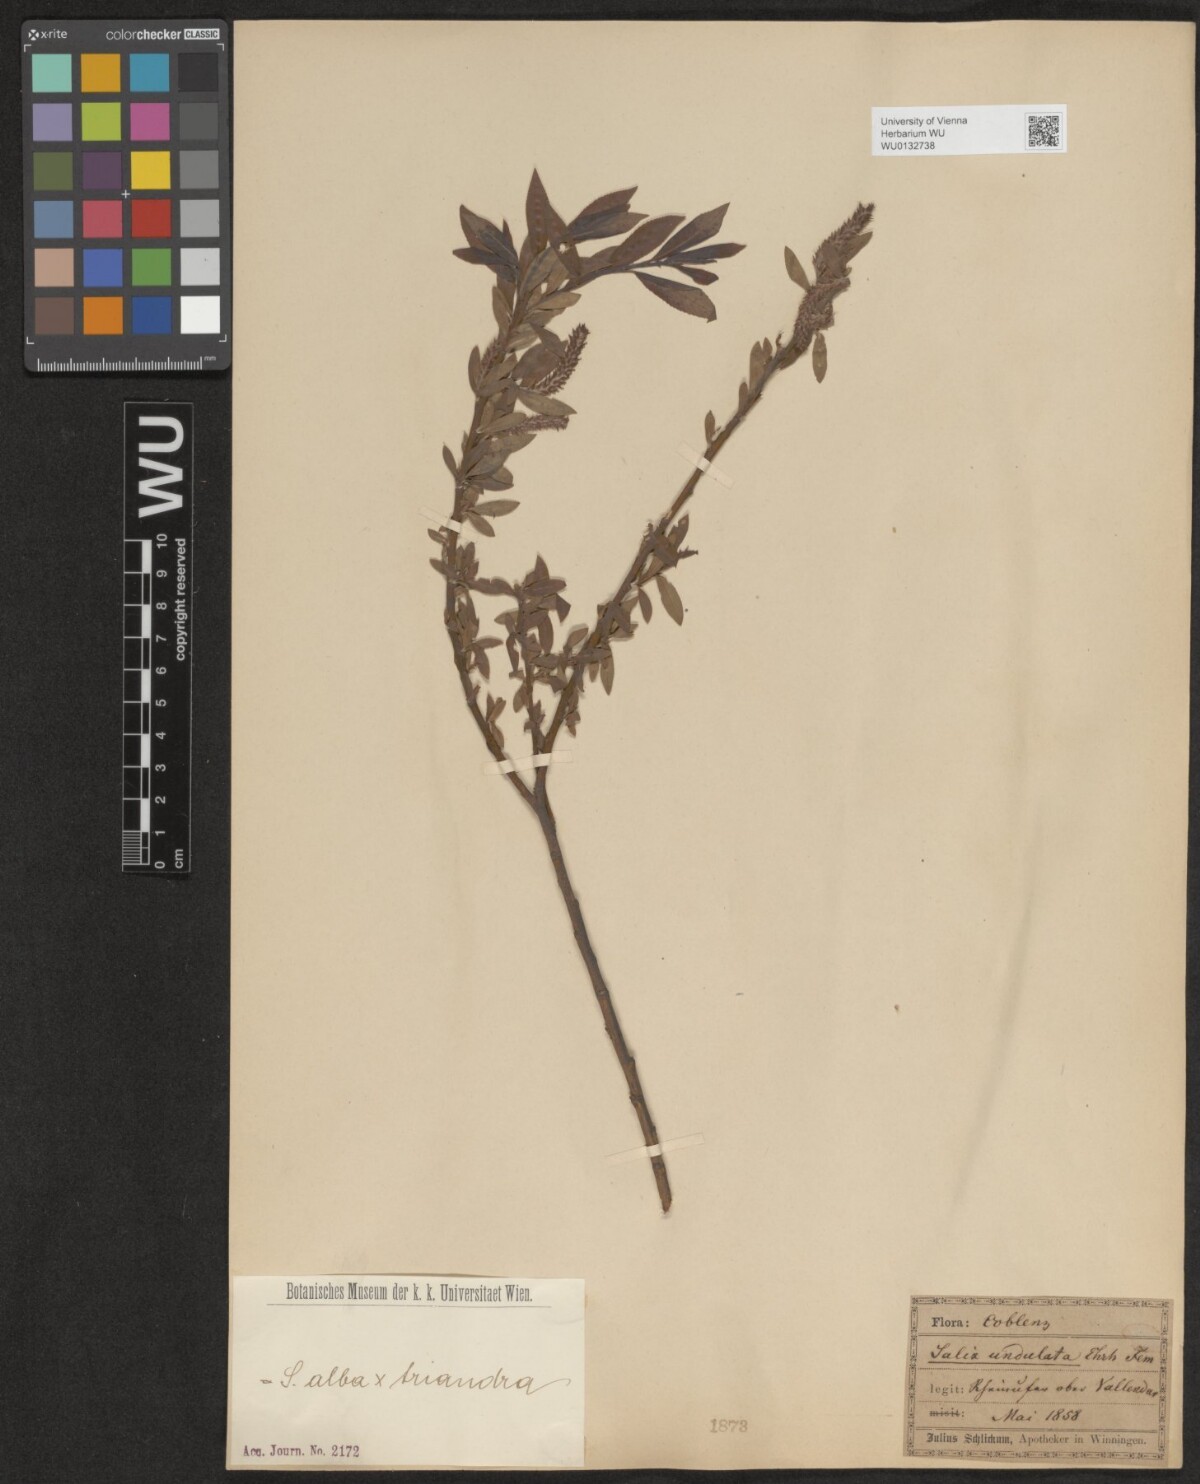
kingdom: Plantae
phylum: Tracheophyta
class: Magnoliopsida
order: Malpighiales
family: Salicaceae
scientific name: Salicaceae
